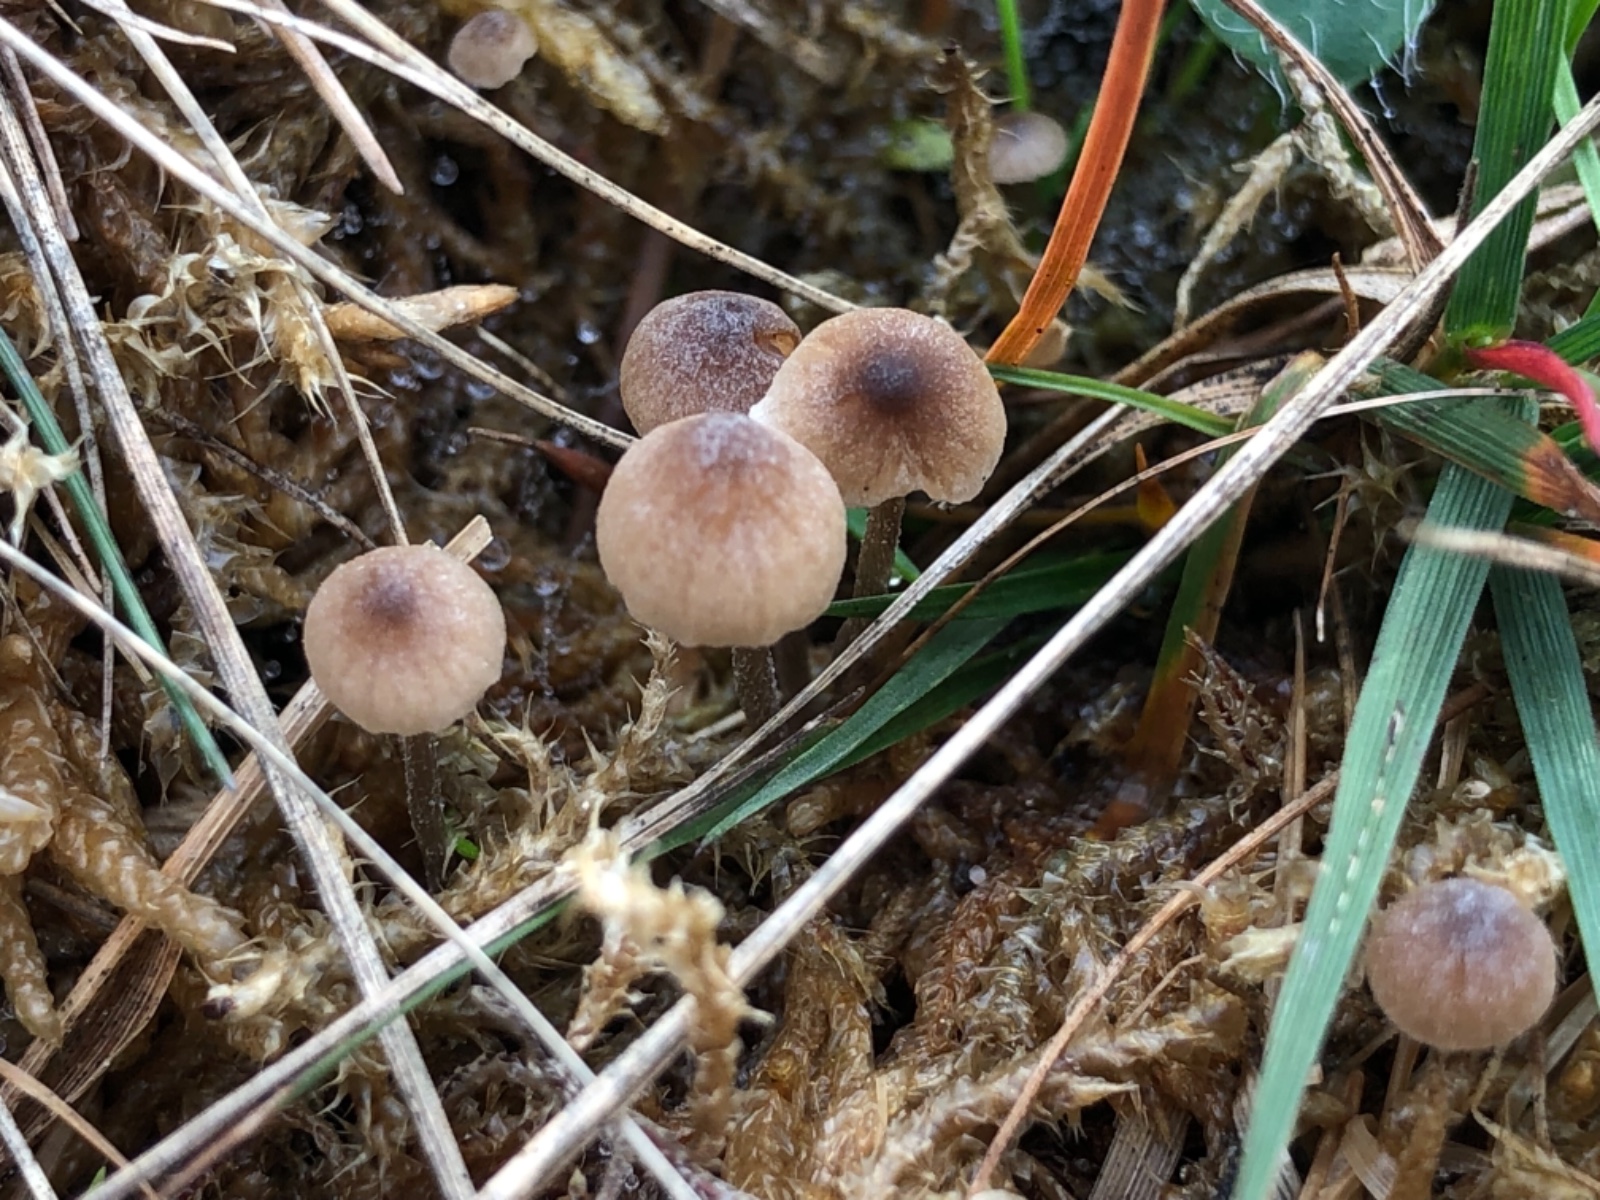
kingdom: Fungi
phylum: Basidiomycota
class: Agaricomycetes
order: Agaricales
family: Lyophyllaceae
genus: Sagaranella
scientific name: Sagaranella tylicolor
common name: kvælstof-gråblad
